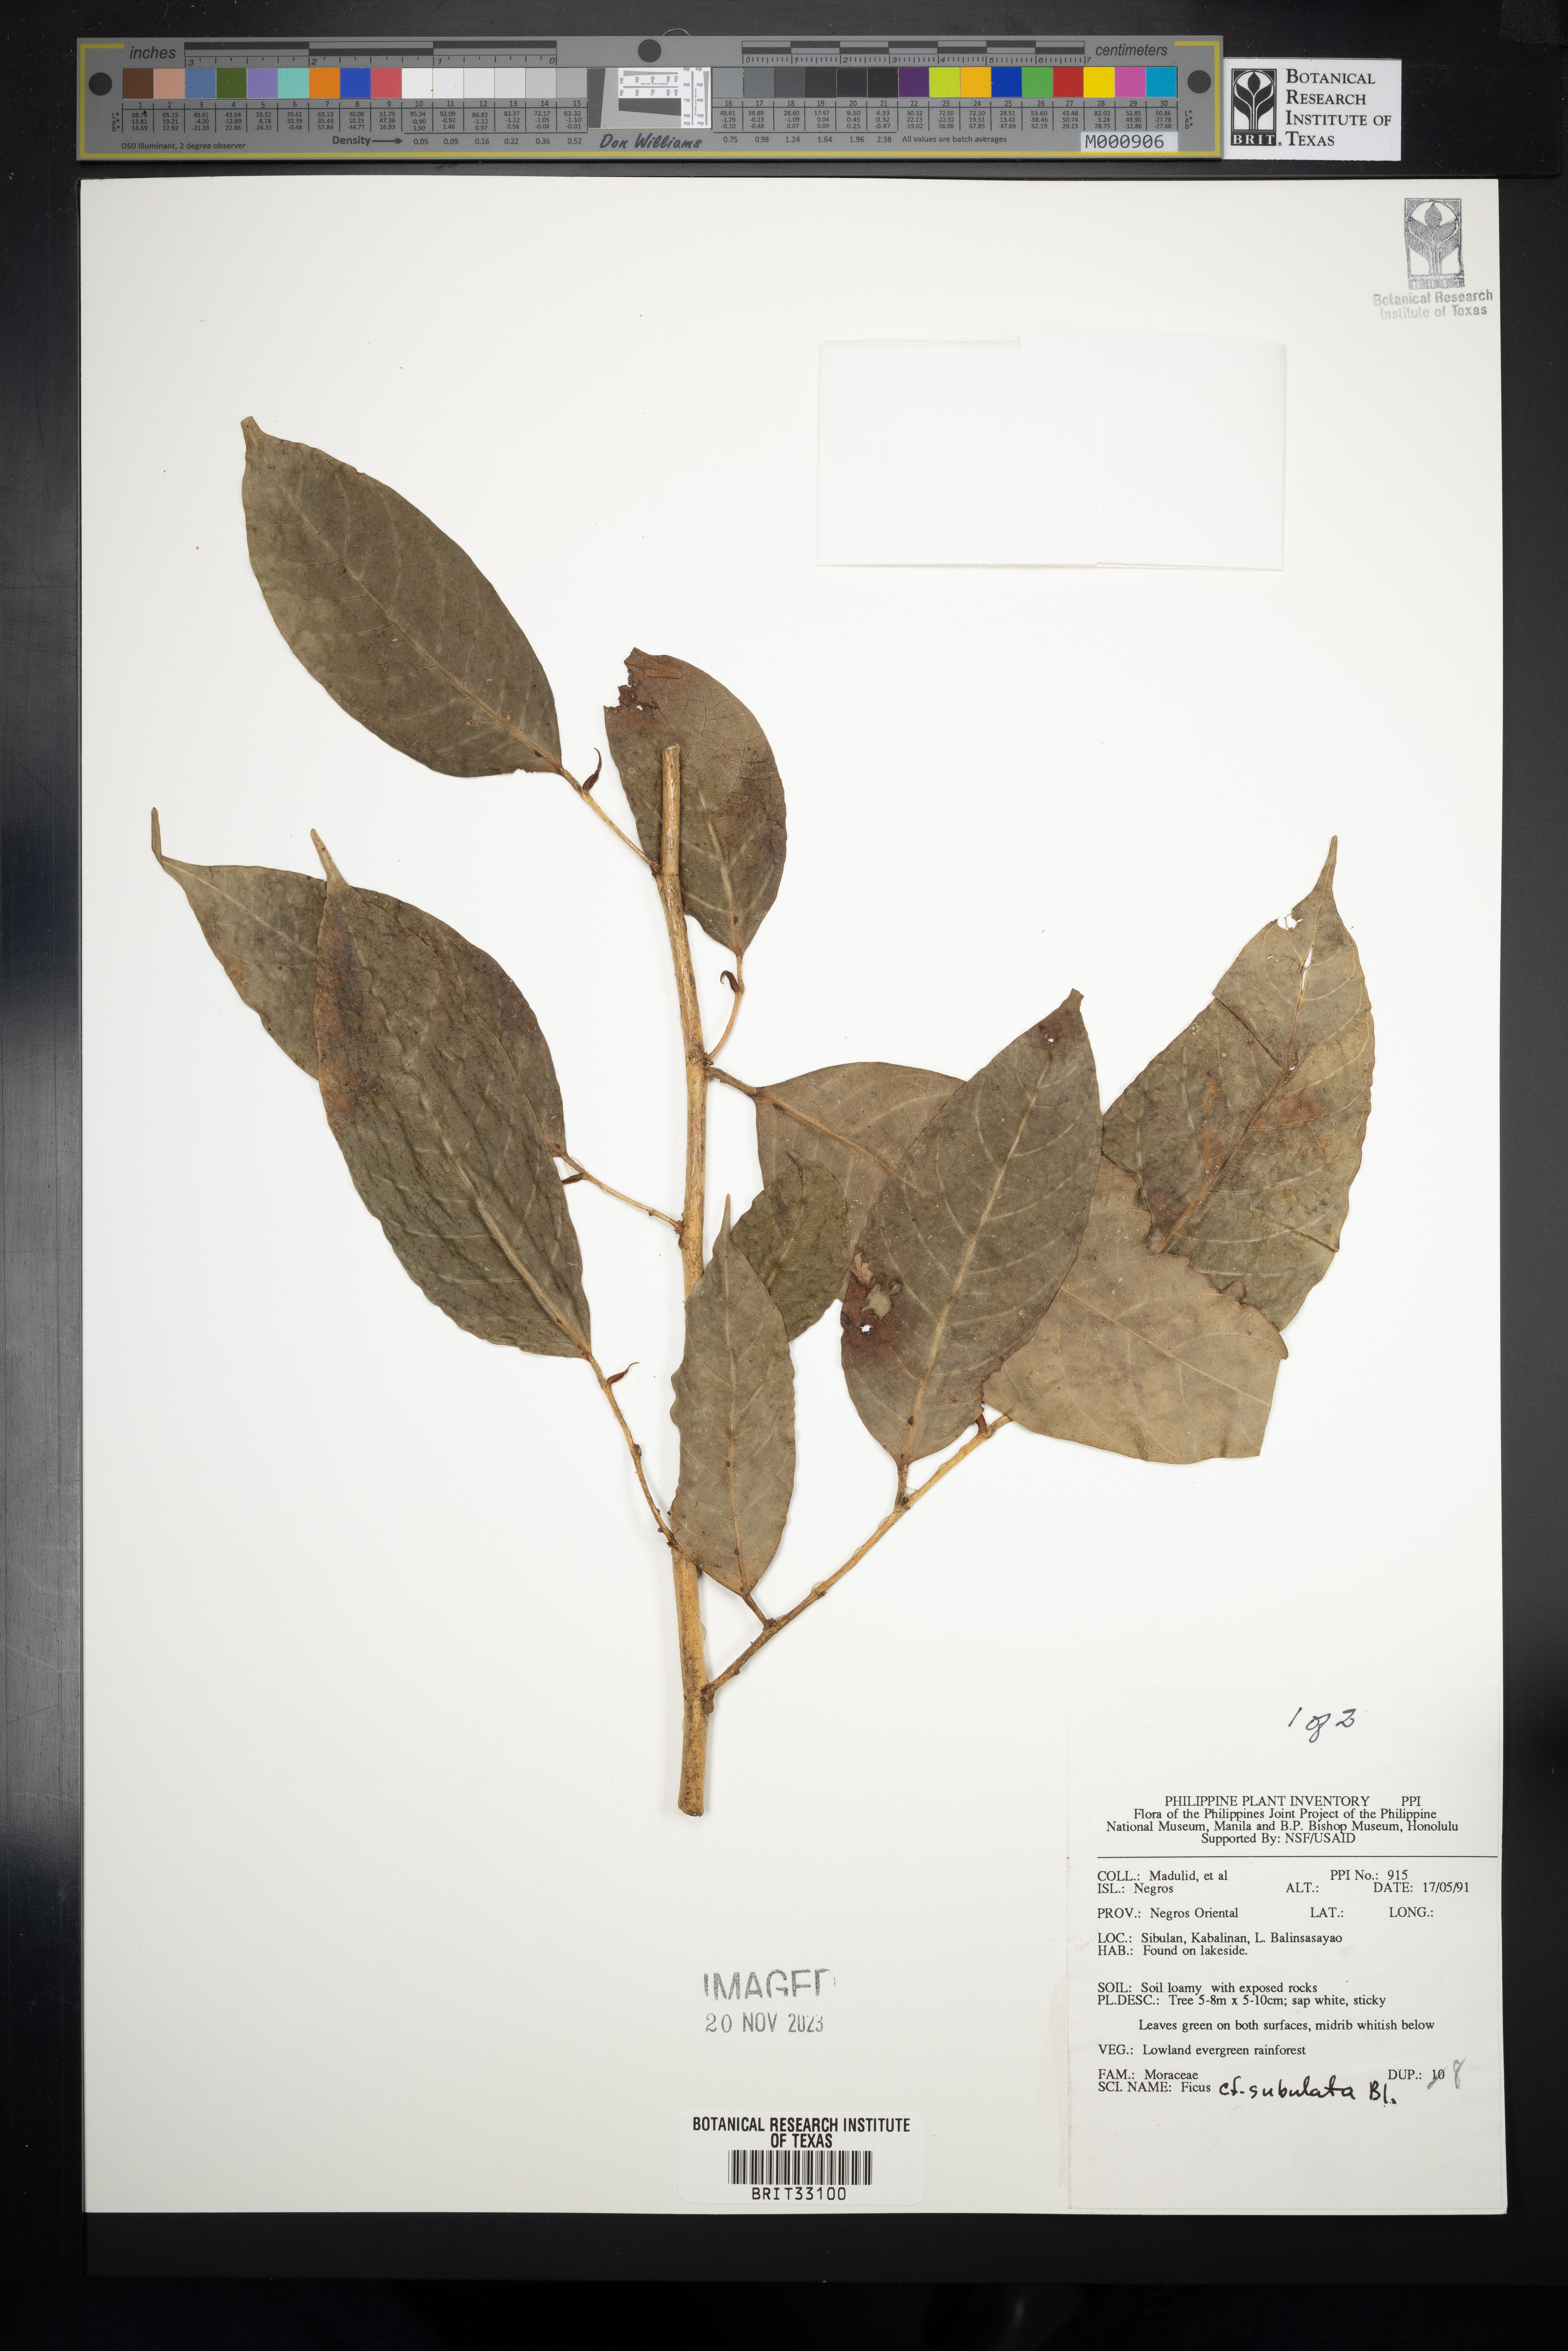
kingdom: Plantae
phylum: Tracheophyta
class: Magnoliopsida
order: Rosales
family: Moraceae
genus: Ficus
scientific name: Ficus subulata
